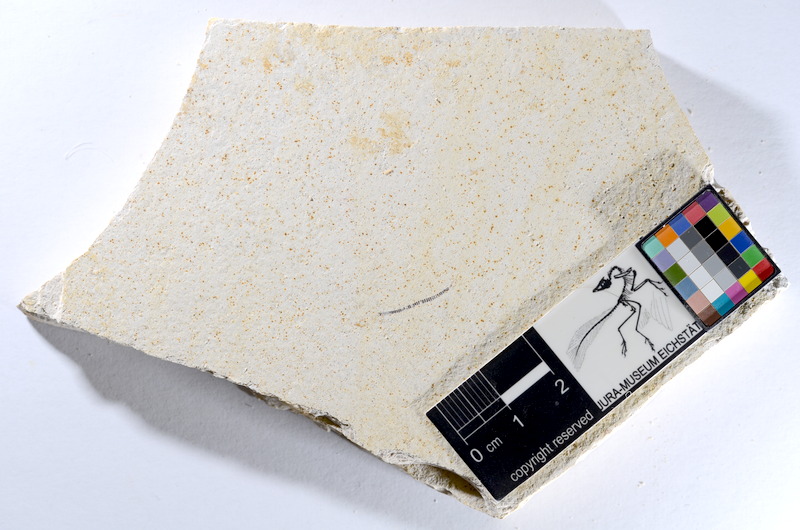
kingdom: Animalia
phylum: Chordata
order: Salmoniformes
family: Orthogonikleithridae
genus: Orthogonikleithrus
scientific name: Orthogonikleithrus hoelli
